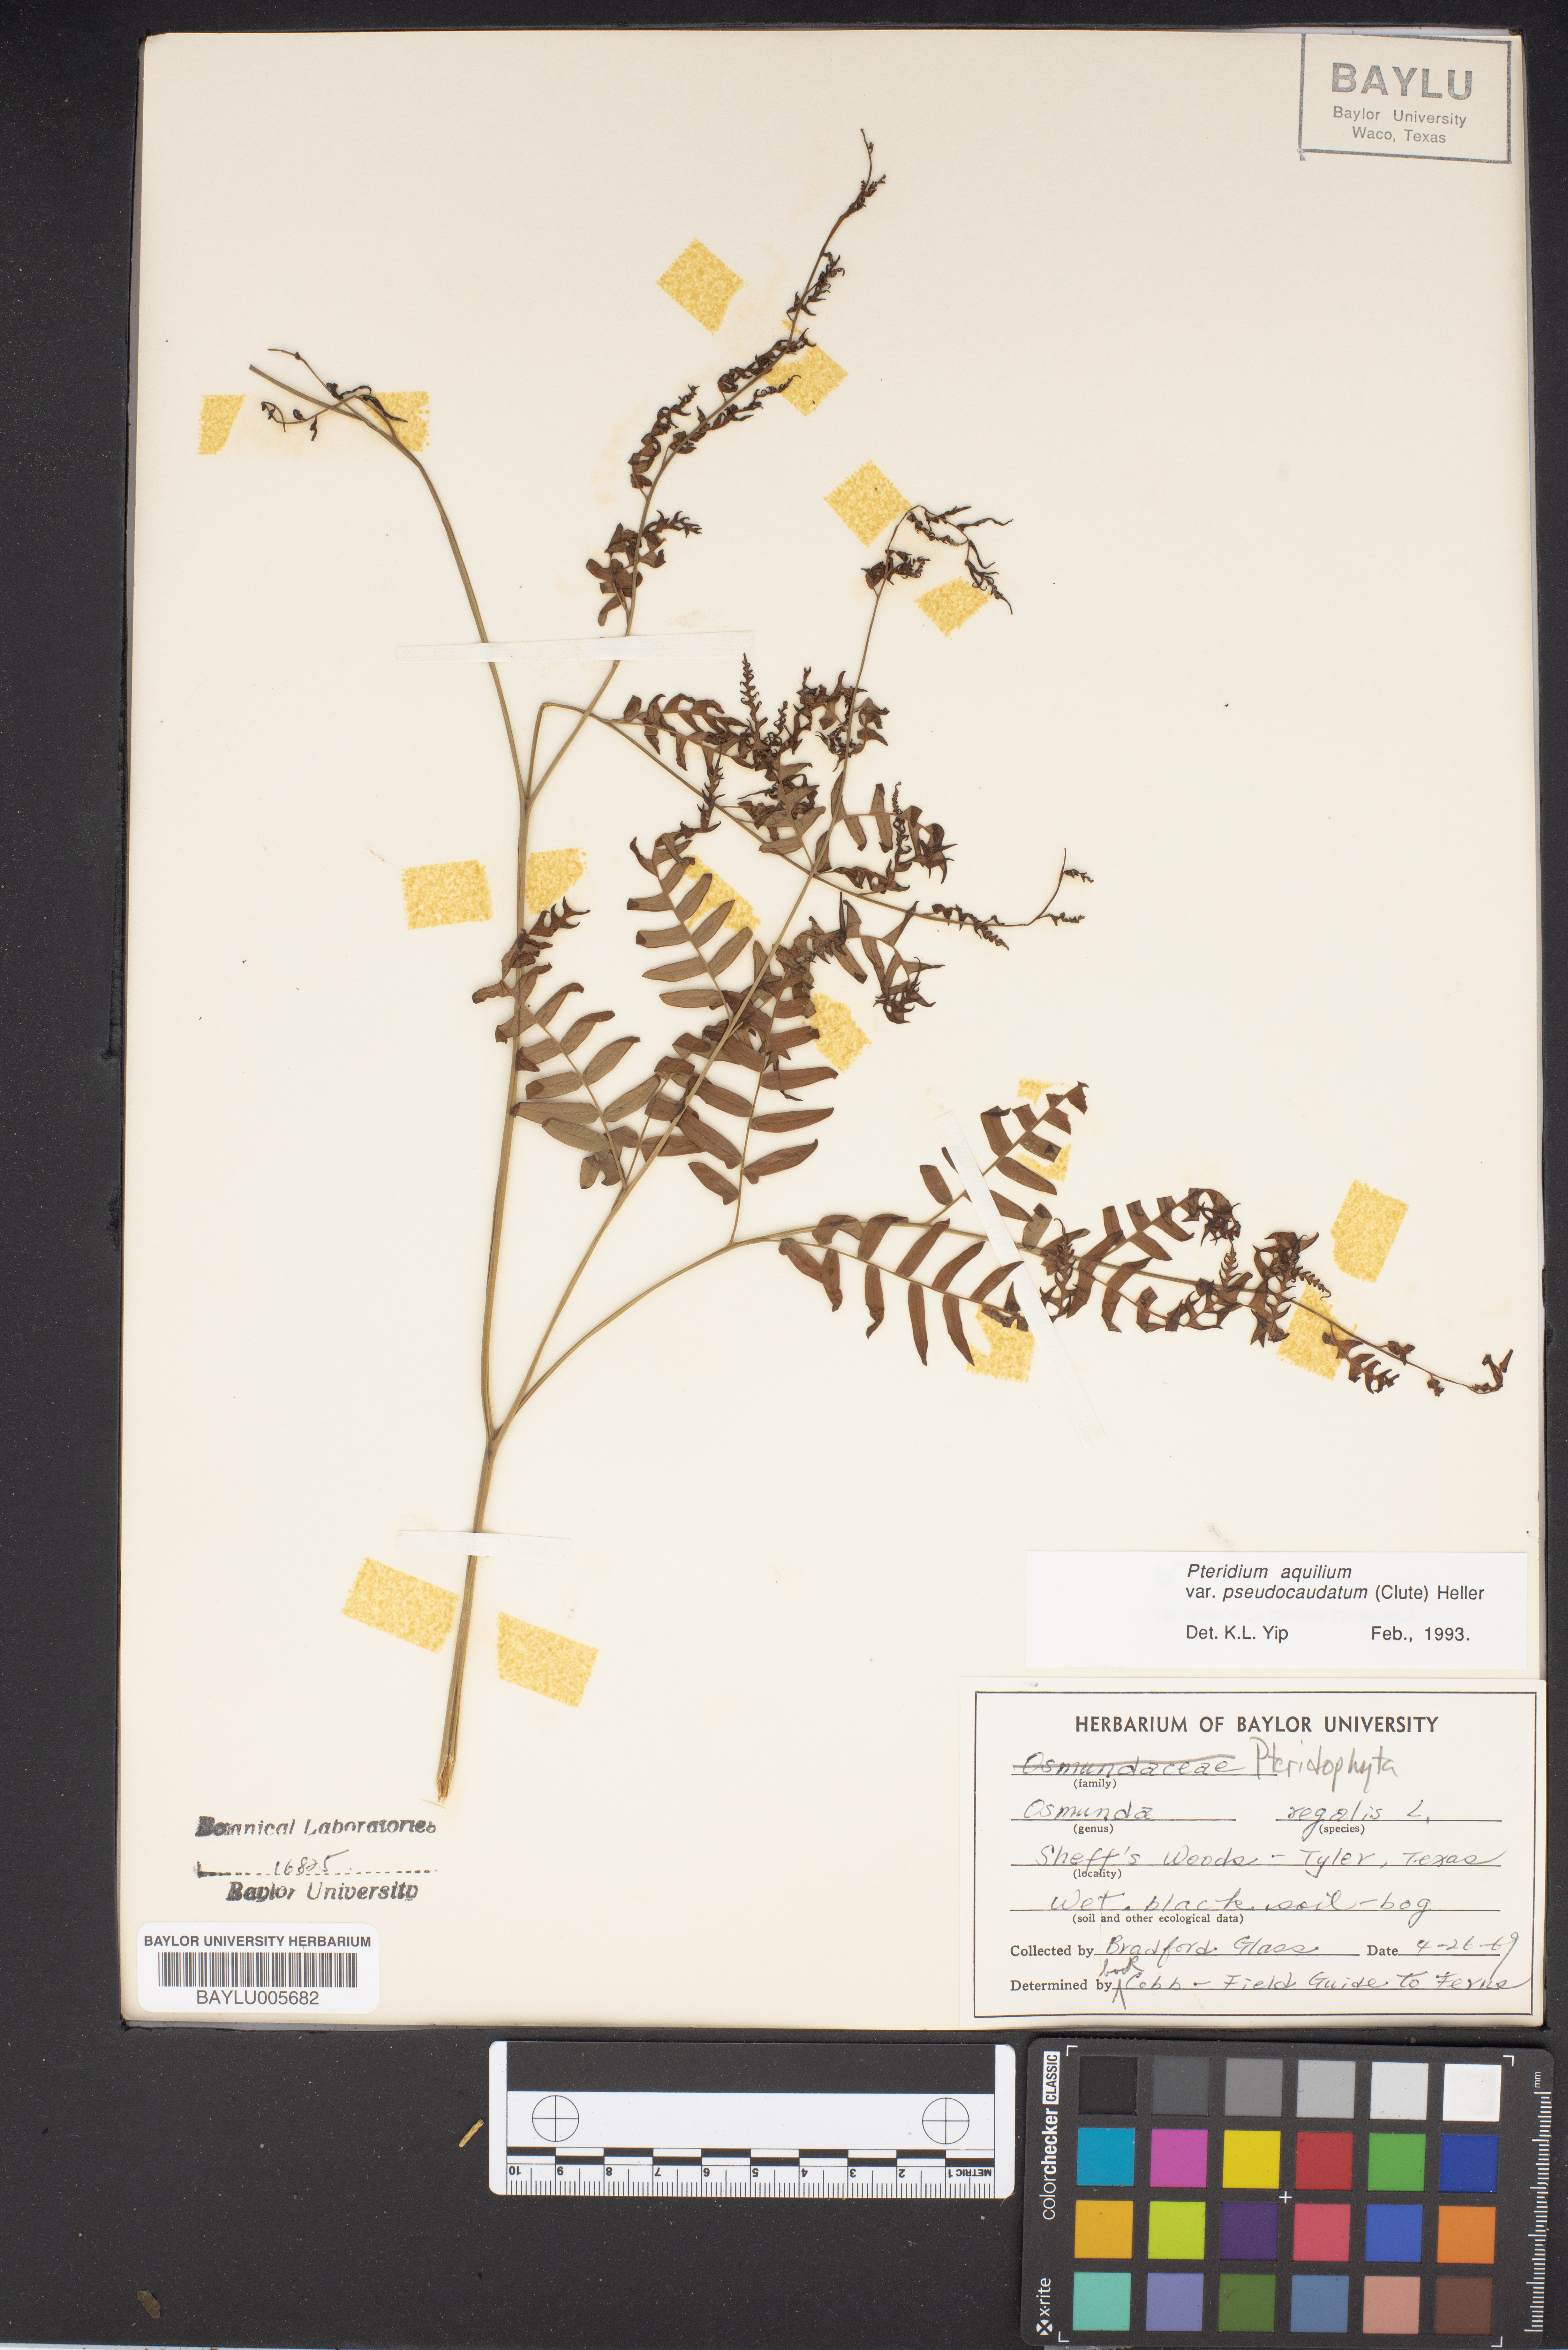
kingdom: Plantae
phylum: Tracheophyta
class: Polypodiopsida
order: Osmundales
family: Osmundaceae
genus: Osmunda
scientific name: Osmunda regalis
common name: Royal fern
